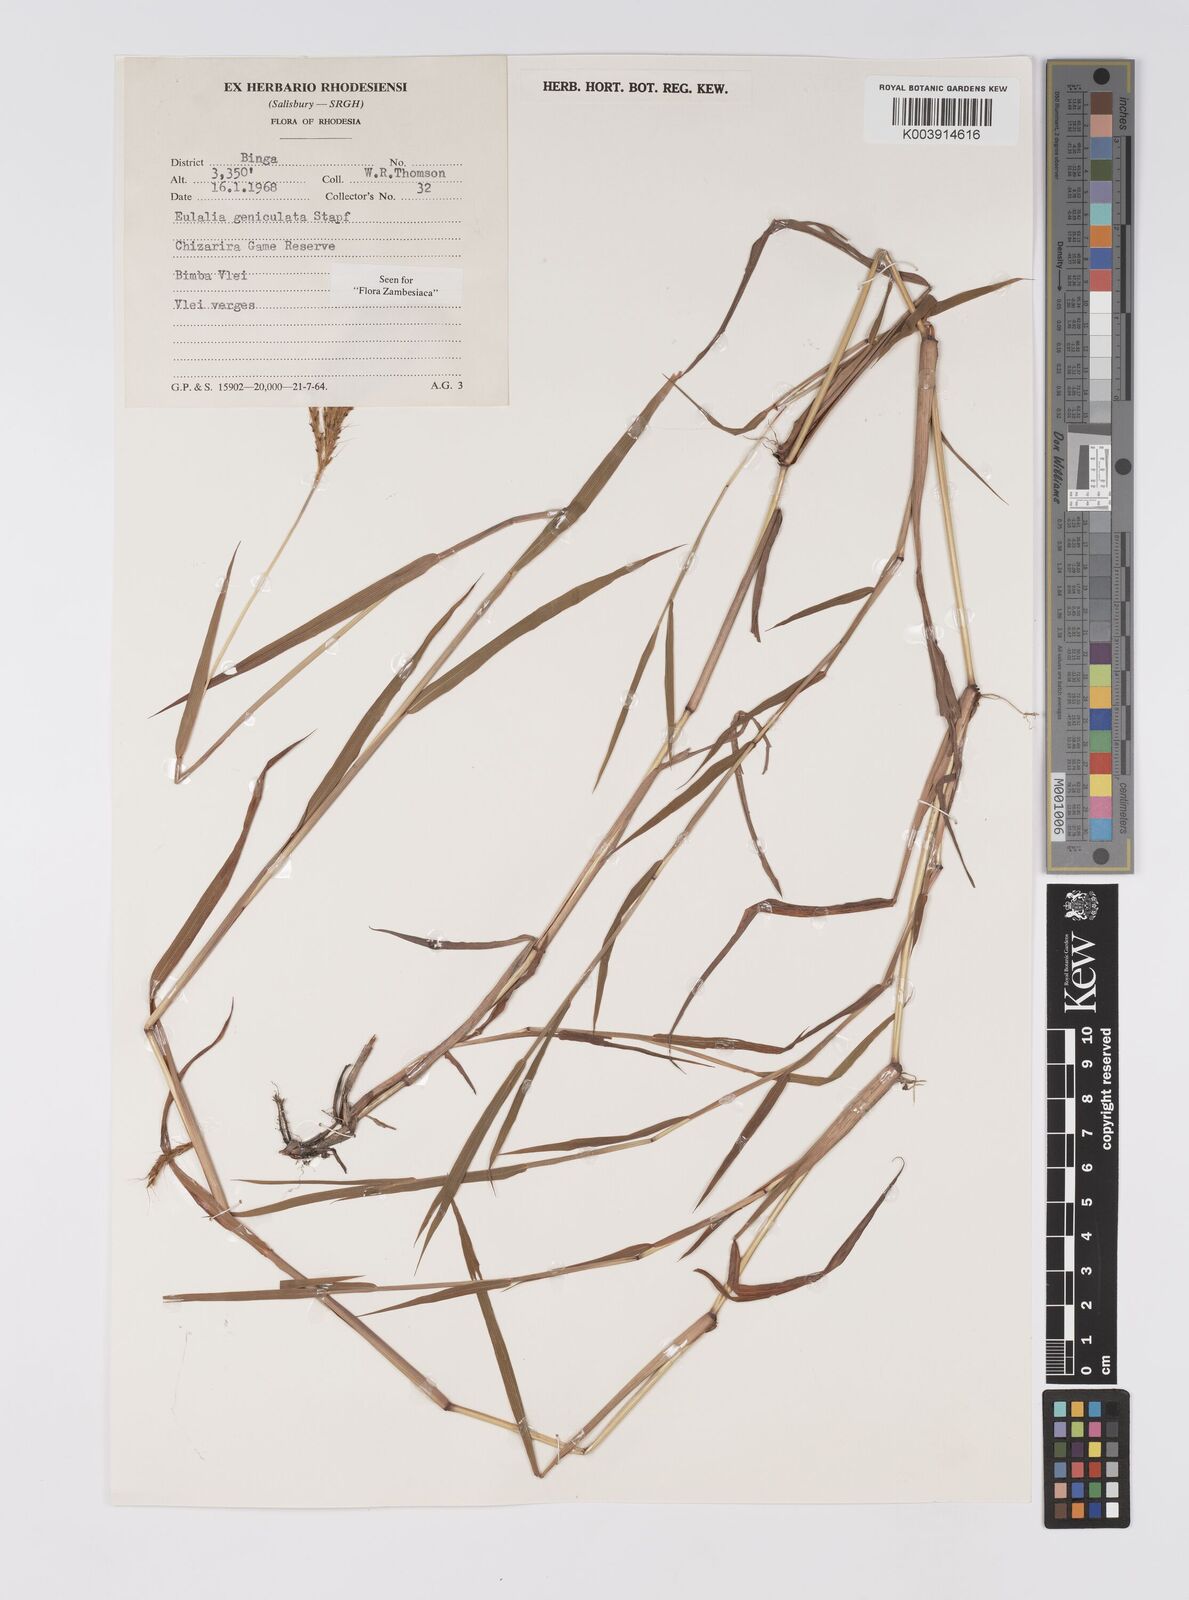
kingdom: Plantae
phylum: Tracheophyta
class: Liliopsida
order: Poales
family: Poaceae
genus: Eulalia
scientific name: Eulalia aurea
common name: Silky browntop
